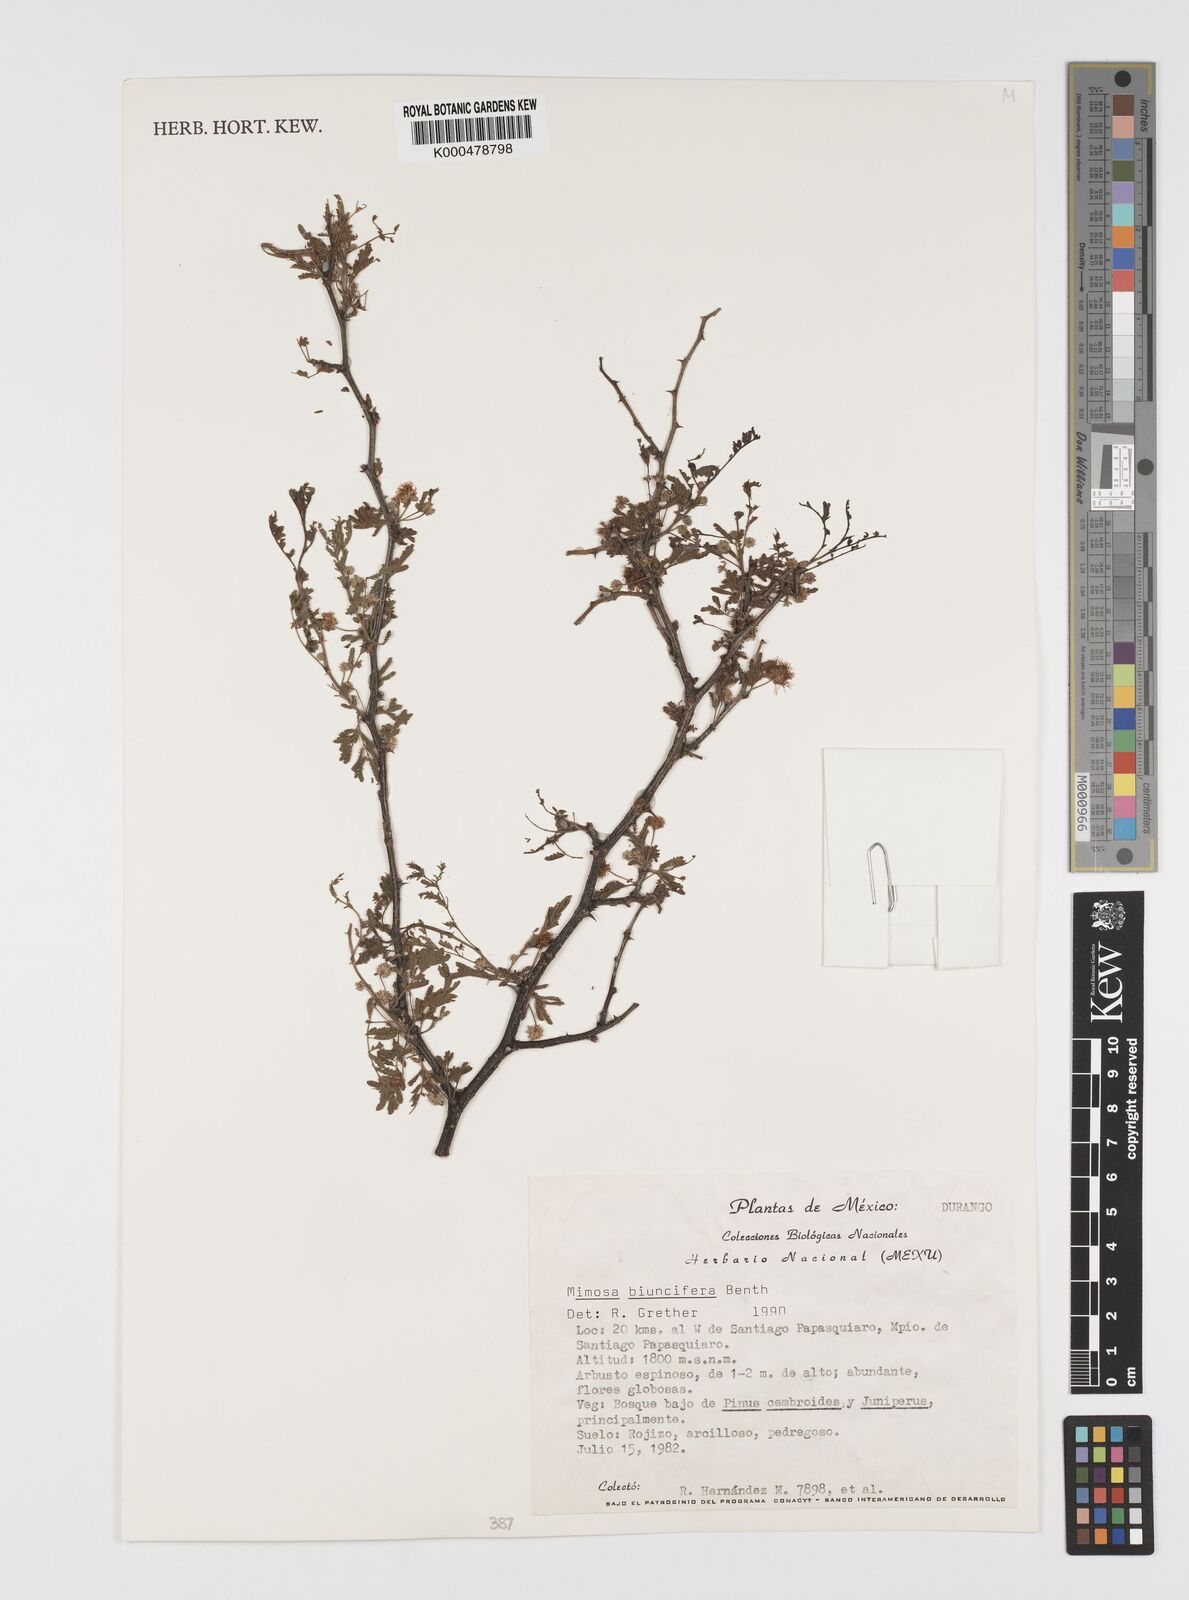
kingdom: Plantae
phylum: Tracheophyta
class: Magnoliopsida
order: Fabales
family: Fabaceae
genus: Mimosa
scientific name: Mimosa biuncifera
